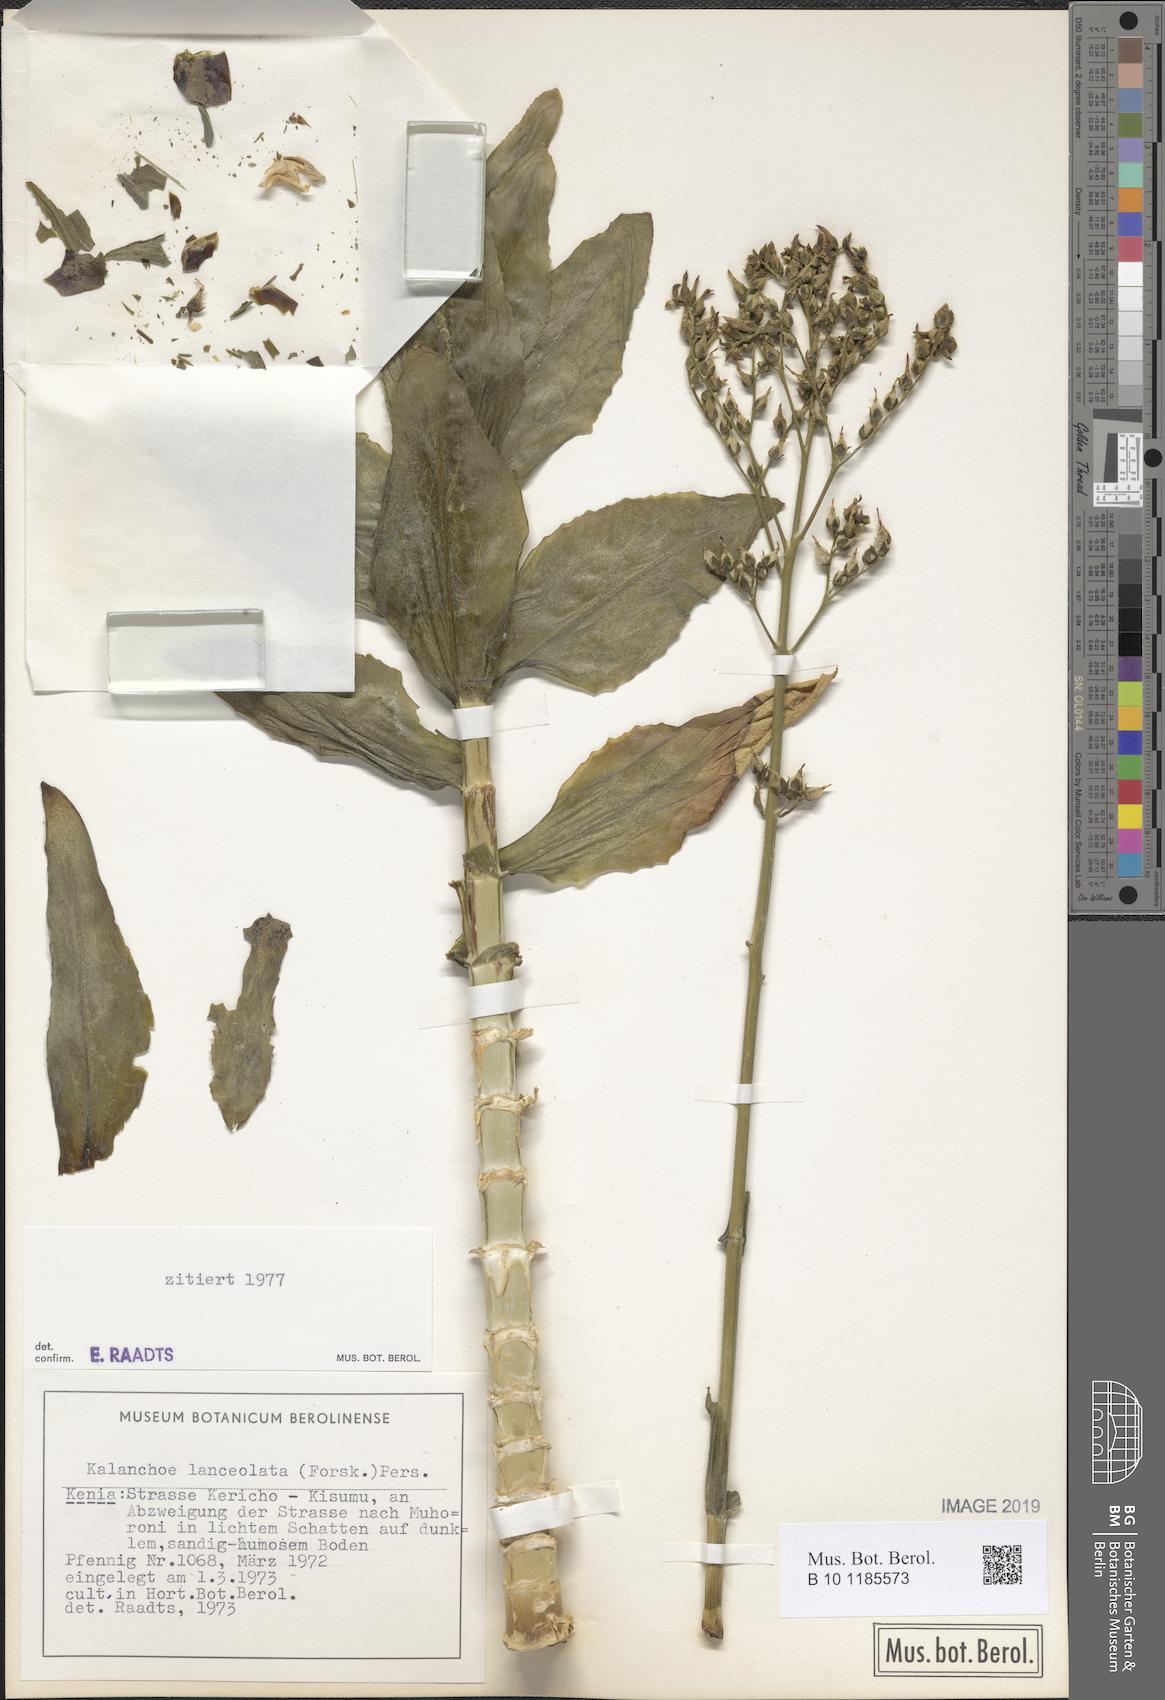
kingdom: Plantae
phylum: Tracheophyta
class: Magnoliopsida
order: Saxifragales
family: Crassulaceae
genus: Kalanchoe
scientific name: Kalanchoe lanceolata
